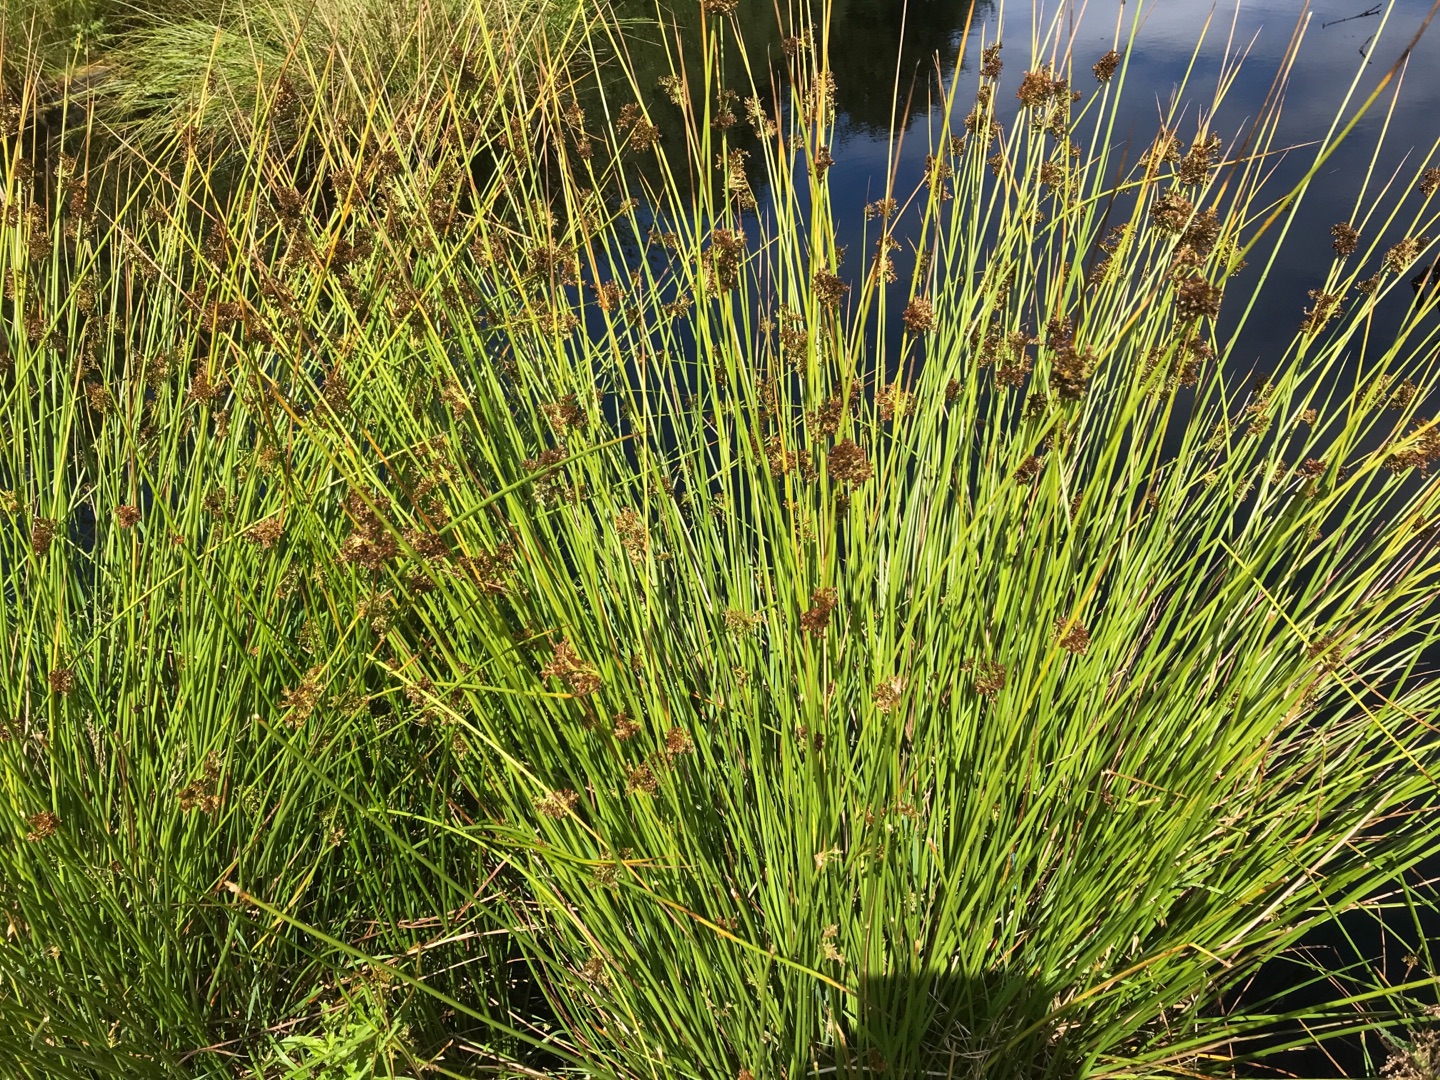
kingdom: Plantae
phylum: Tracheophyta
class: Liliopsida
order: Poales
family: Juncaceae
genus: Juncus
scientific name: Juncus effusus
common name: Lyse-siv
